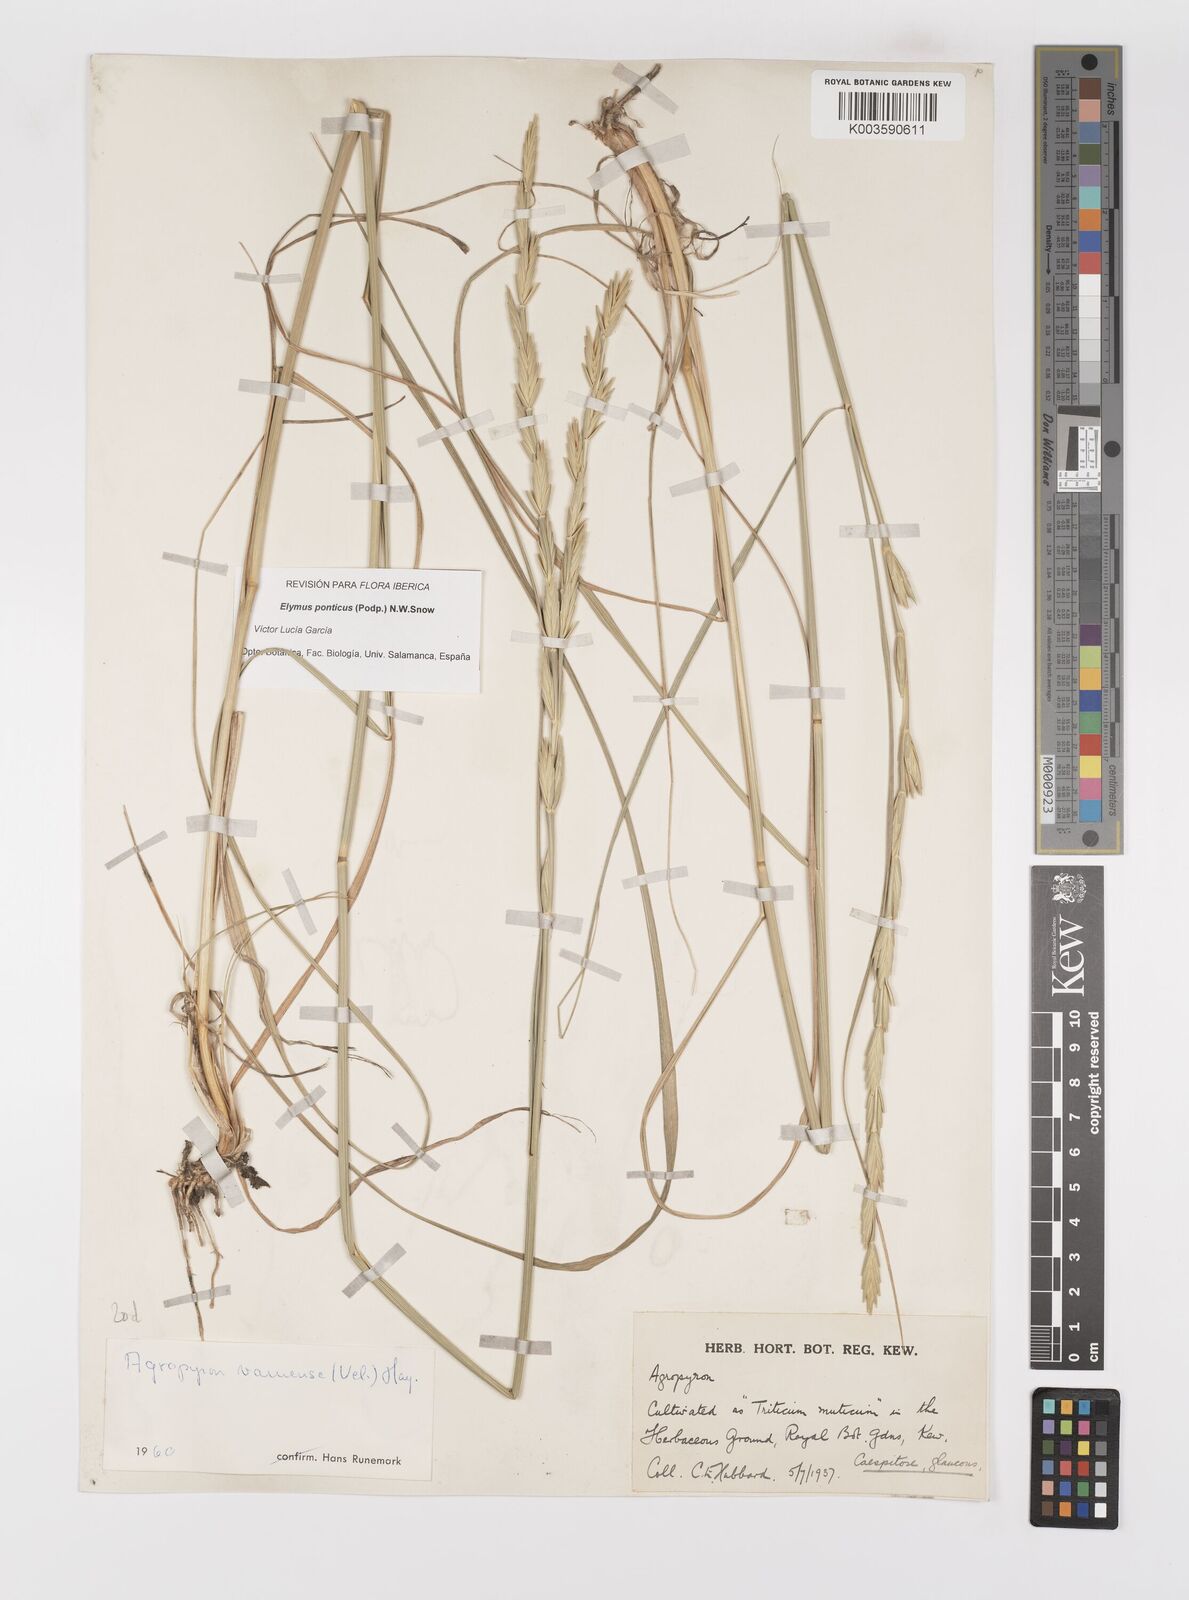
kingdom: Plantae
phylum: Tracheophyta
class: Liliopsida
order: Poales
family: Poaceae
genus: Thinopyrum
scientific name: Thinopyrum elongatum
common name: Tall wheatgrass
